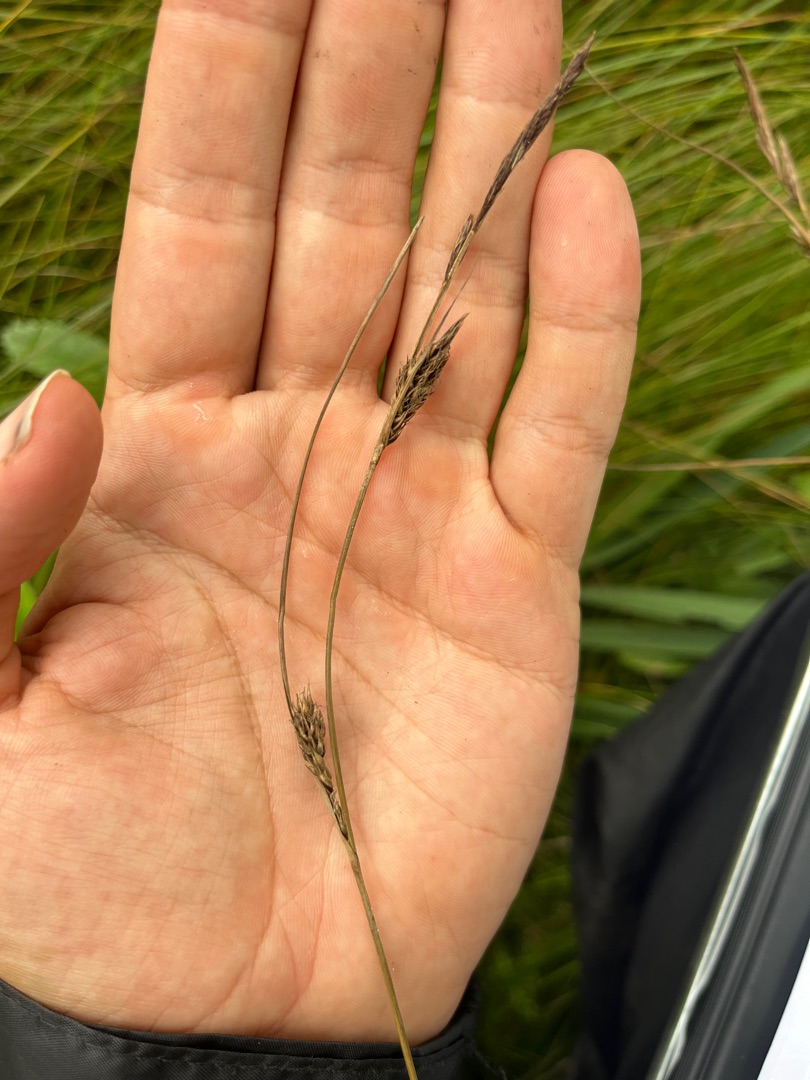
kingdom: Plantae
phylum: Tracheophyta
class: Liliopsida
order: Poales
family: Cyperaceae
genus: Carex
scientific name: Carex lasiocarpa
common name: Tråd-star
